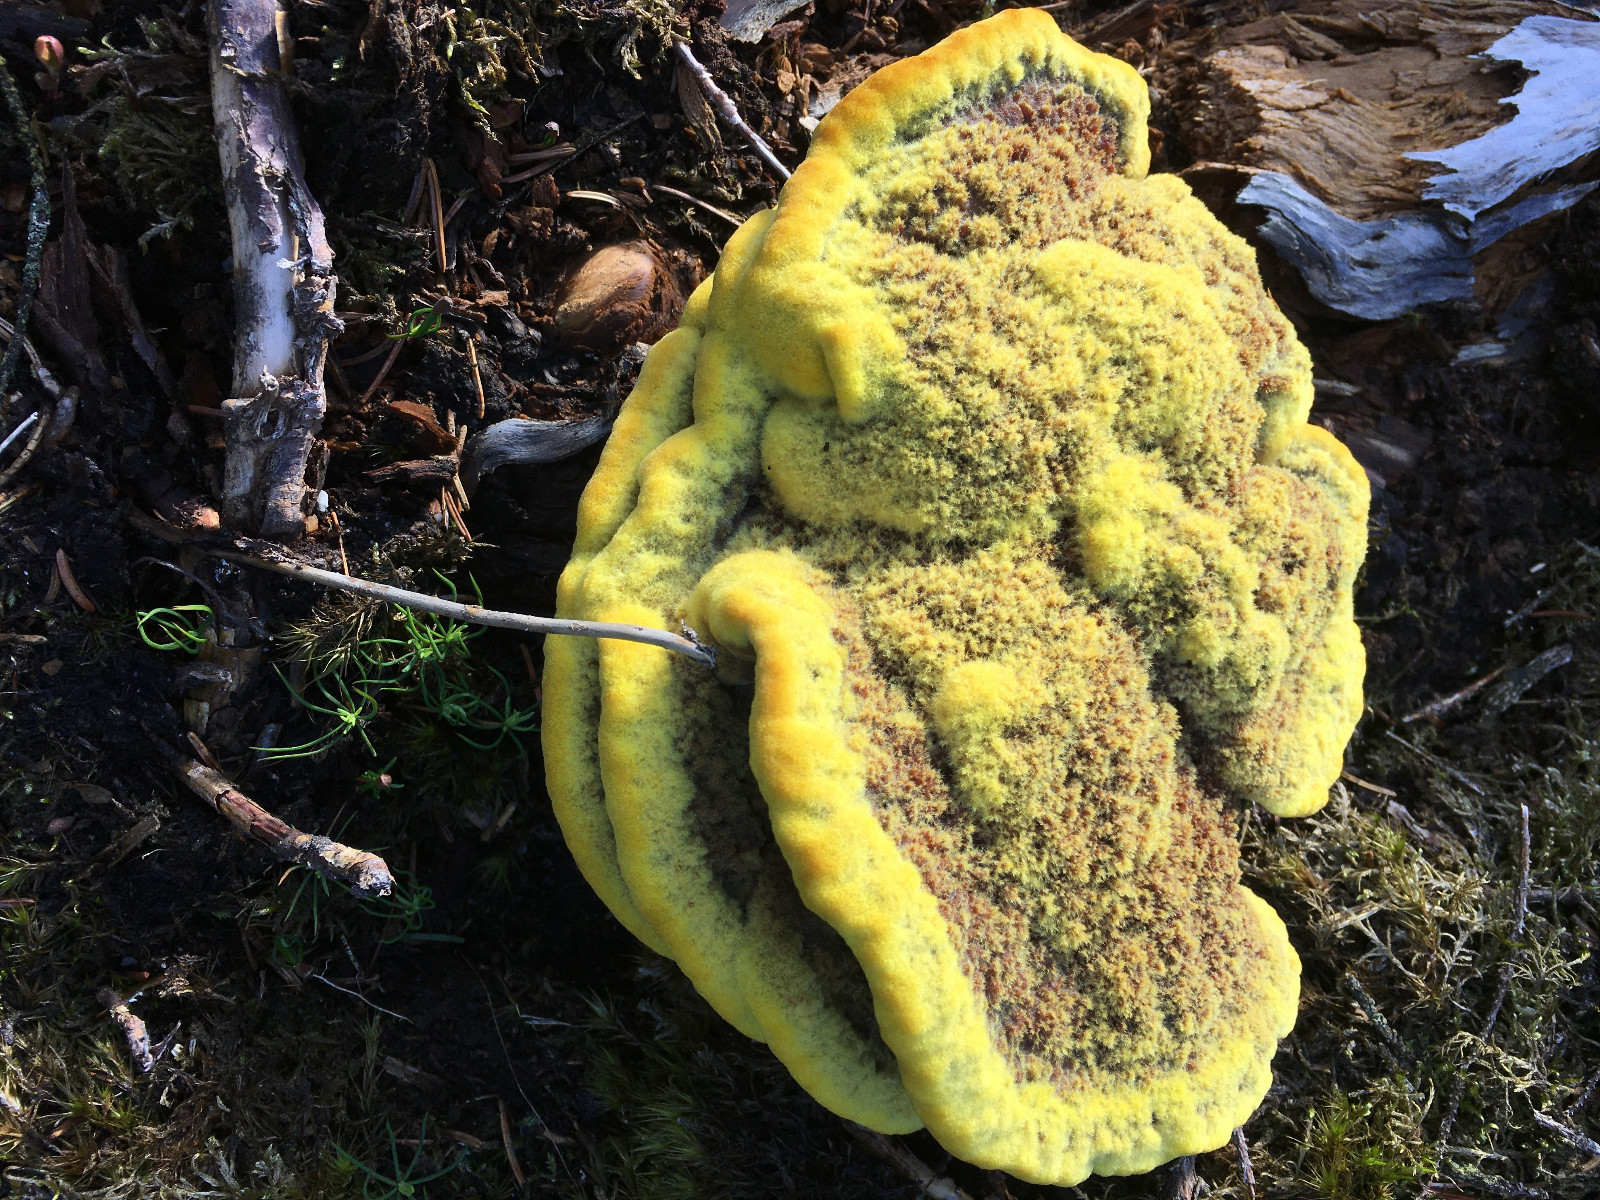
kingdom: Fungi
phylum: Basidiomycota
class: Agaricomycetes
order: Polyporales
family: Laetiporaceae
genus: Phaeolus
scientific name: Phaeolus schweinitzii
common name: brunporesvamp
